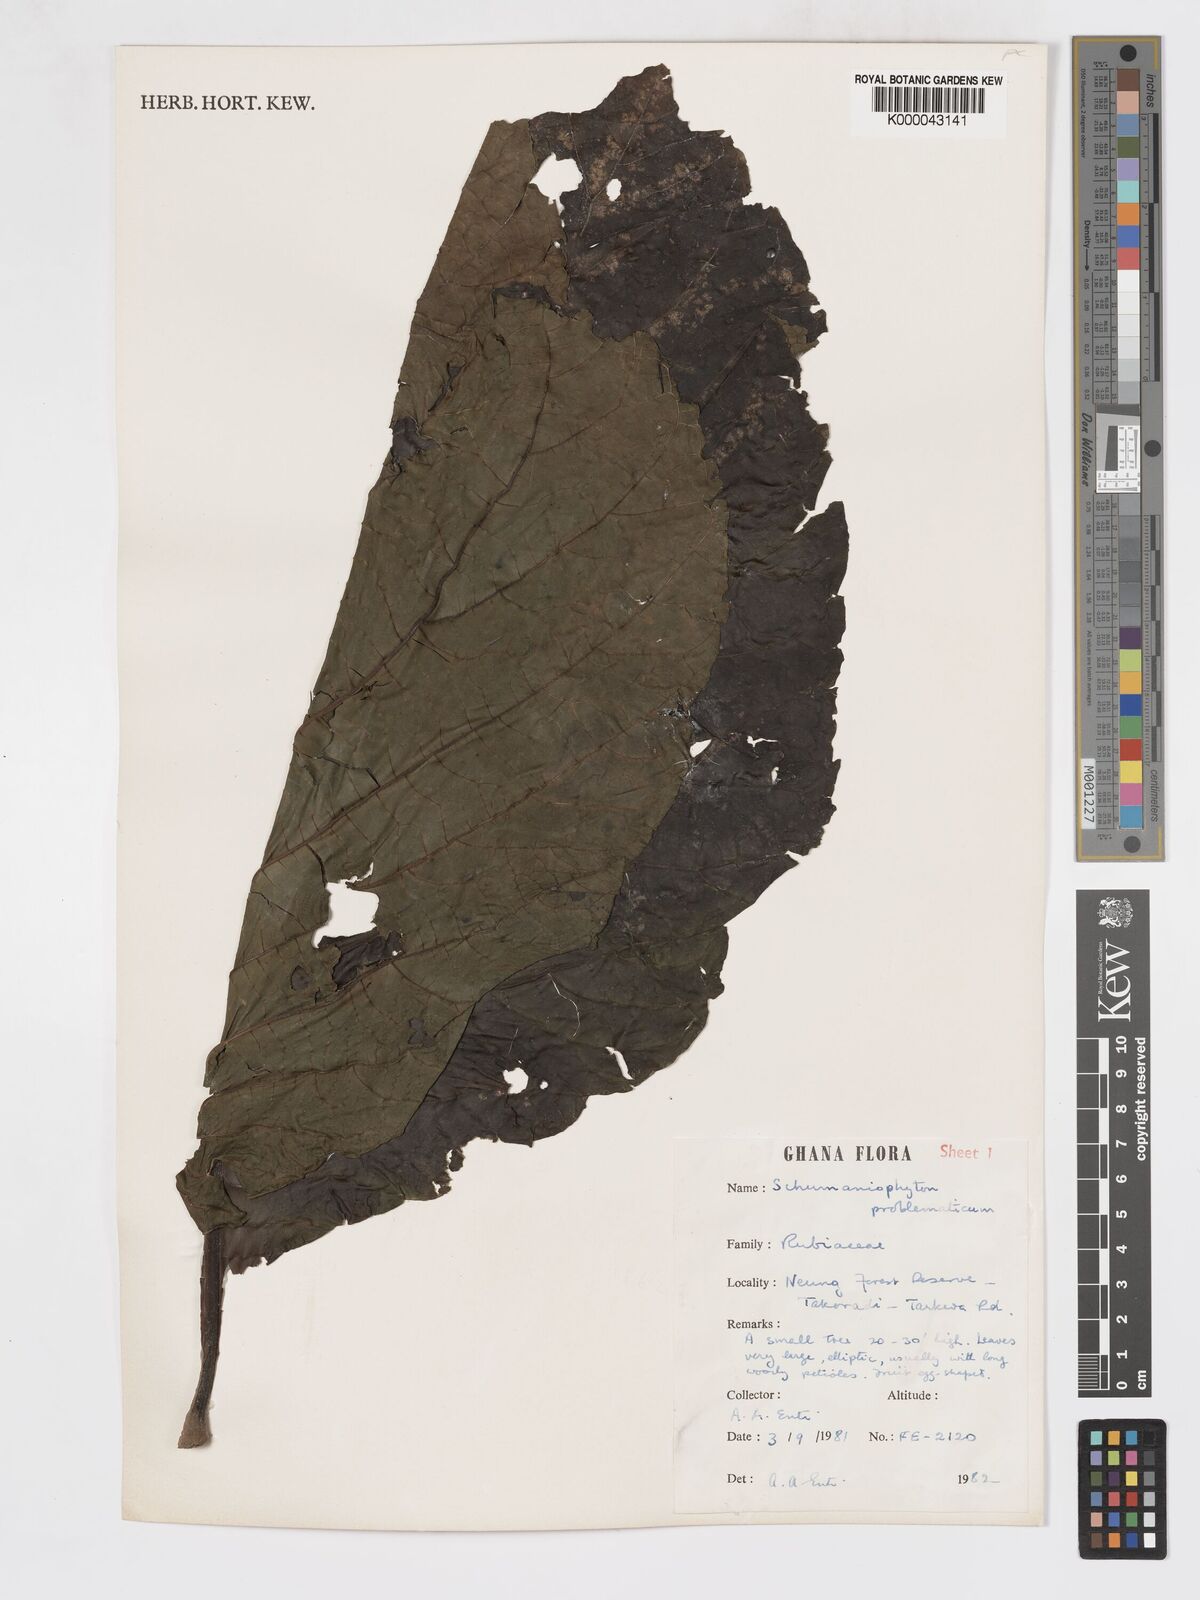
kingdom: Plantae
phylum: Tracheophyta
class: Magnoliopsida
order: Gentianales
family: Rubiaceae
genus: Schumanniophyton
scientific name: Schumanniophyton
